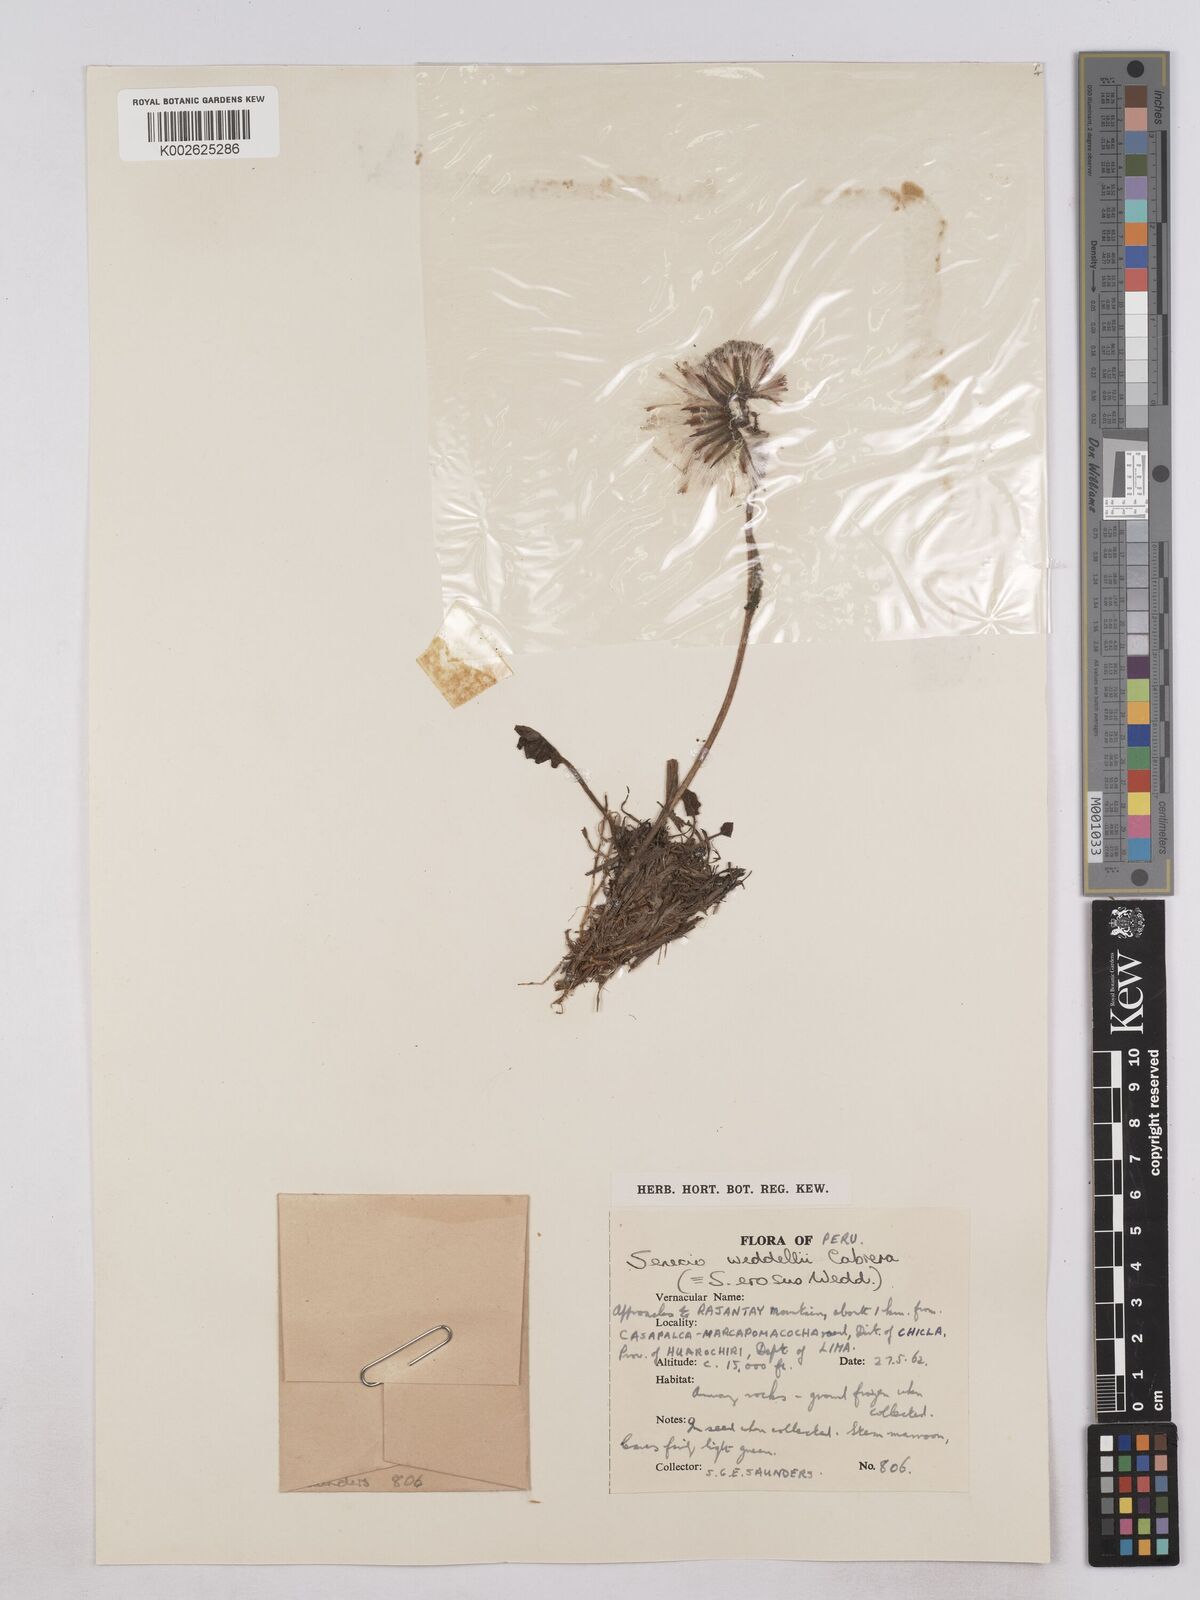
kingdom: Plantae
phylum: Tracheophyta
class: Magnoliopsida
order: Asterales
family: Asteraceae
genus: Senecio
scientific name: Senecio rhizomatus
